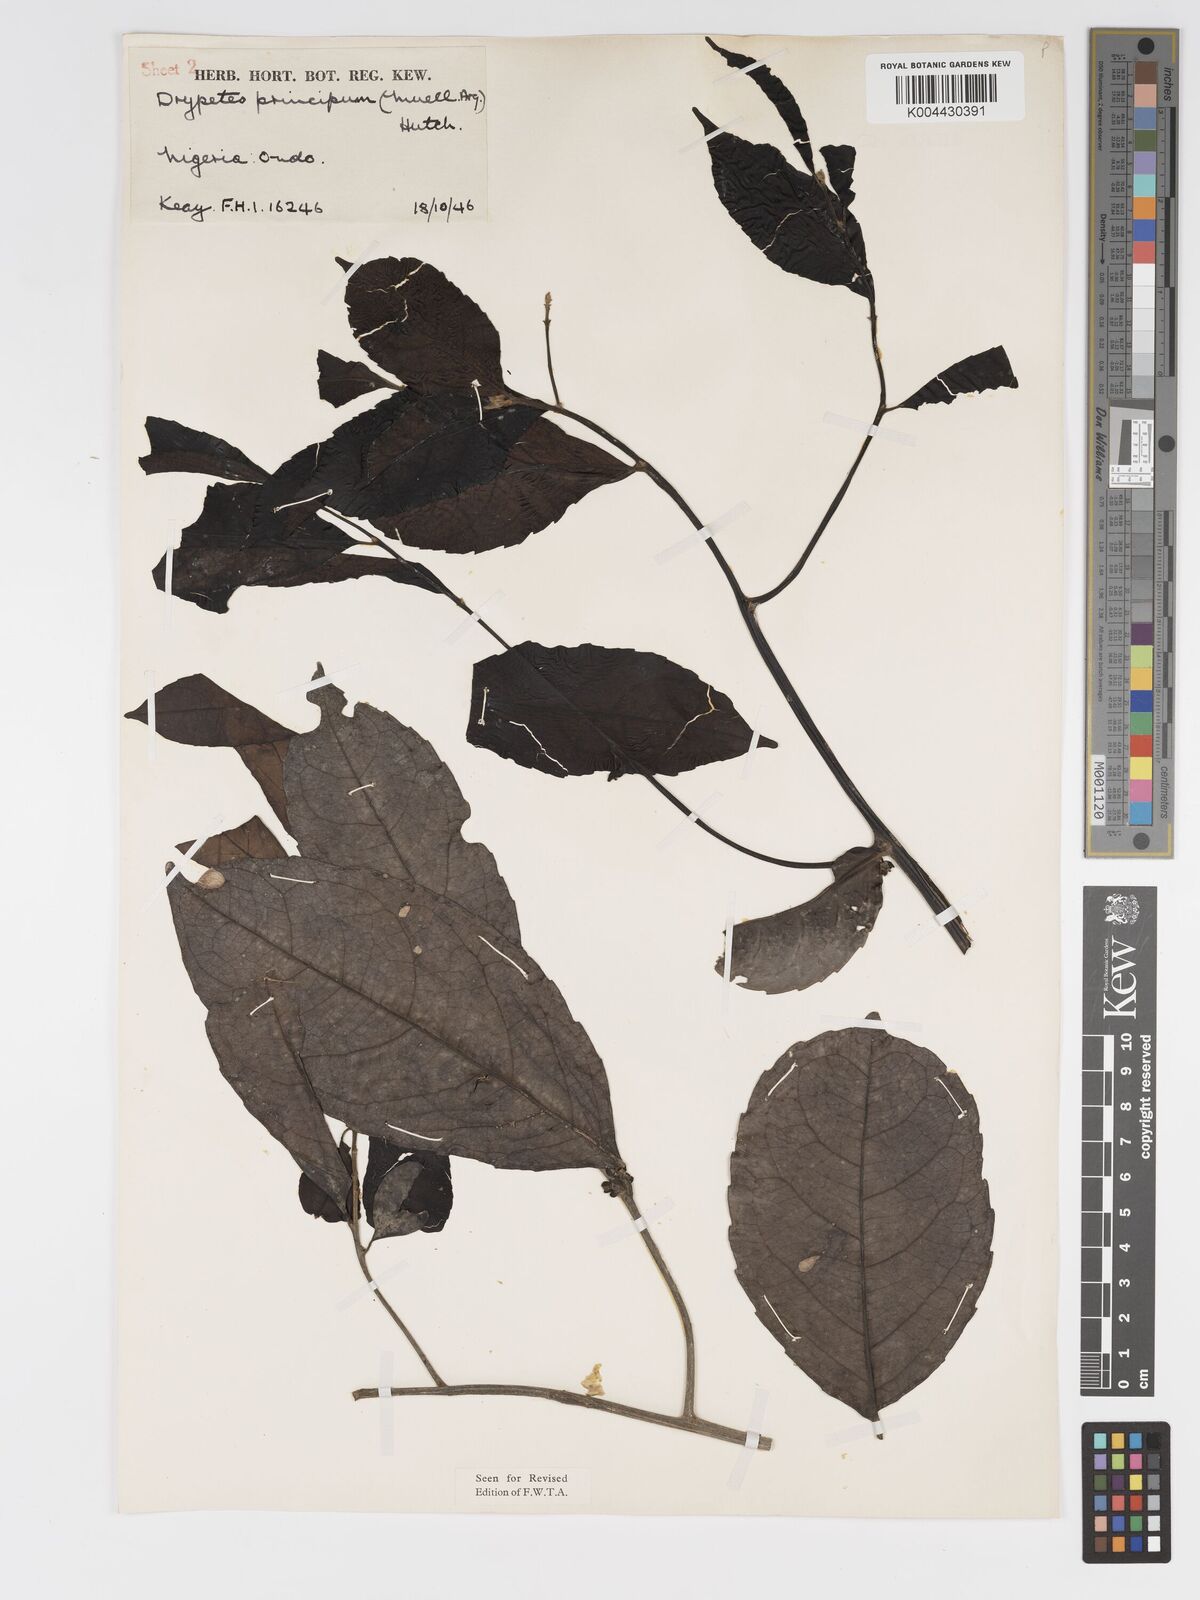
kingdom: Plantae
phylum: Tracheophyta
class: Magnoliopsida
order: Malpighiales
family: Putranjivaceae
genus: Drypetes
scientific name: Drypetes principum
